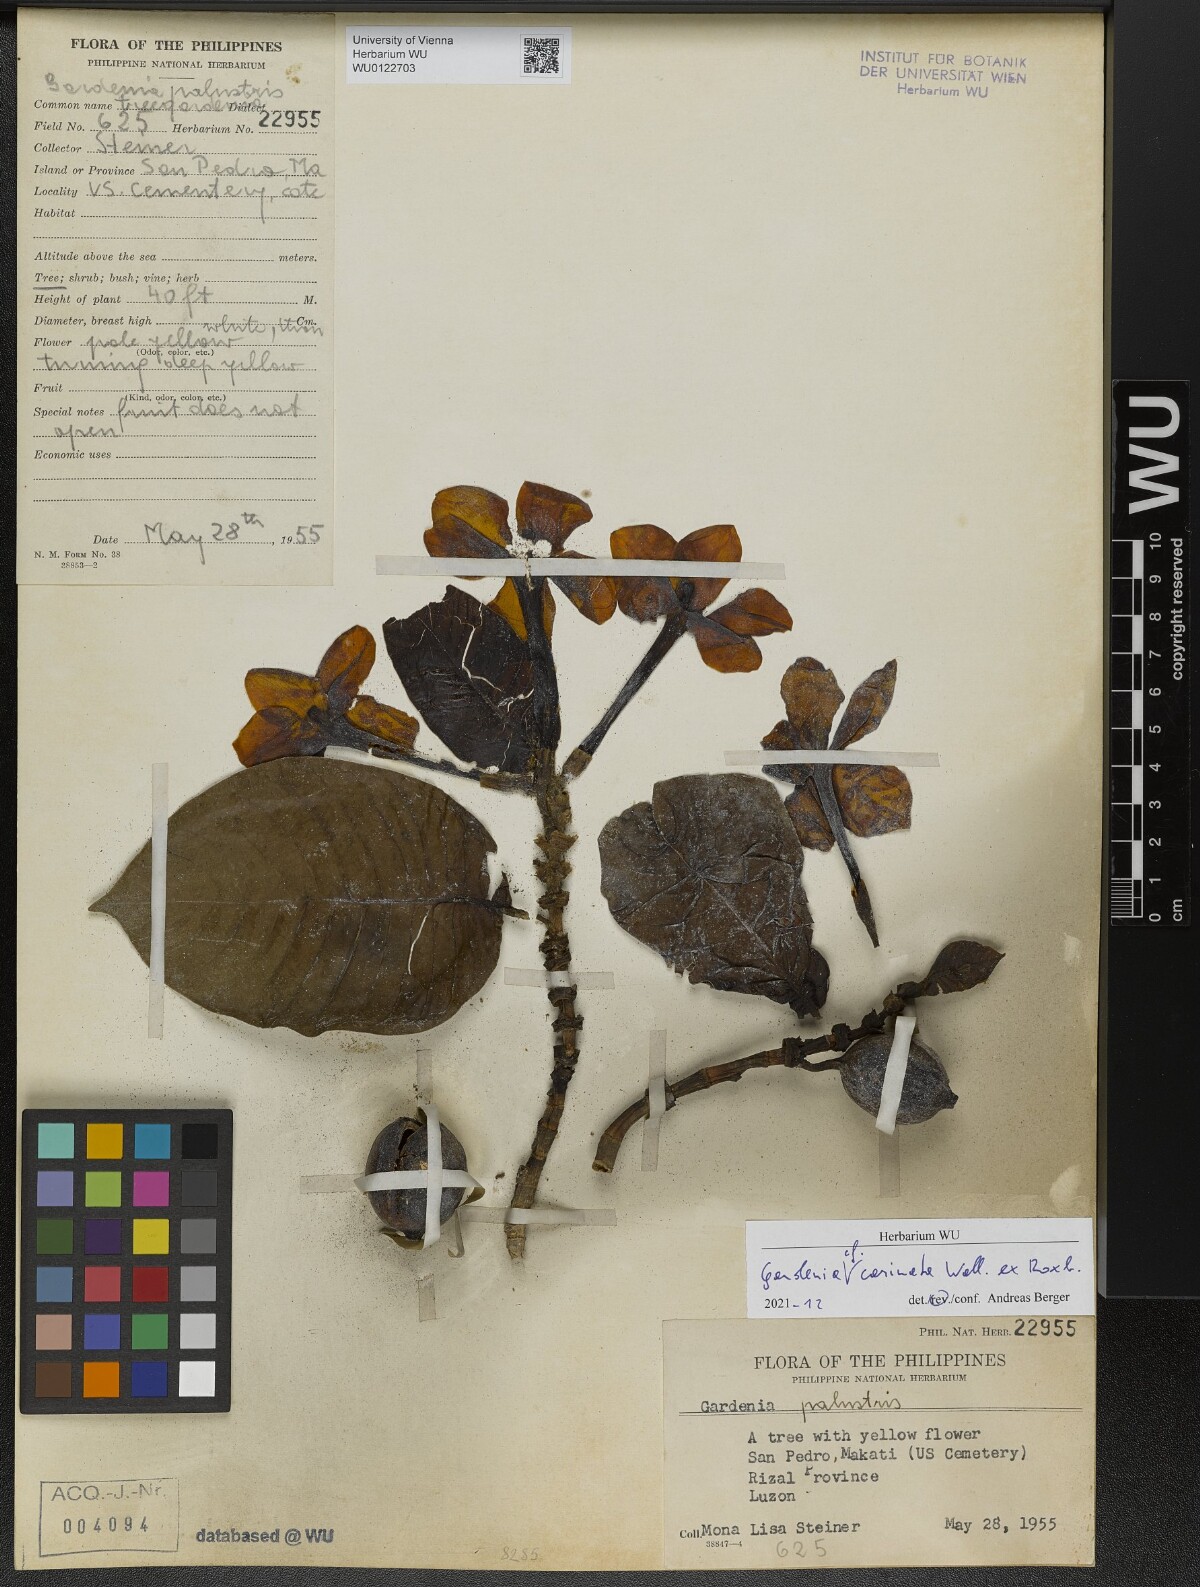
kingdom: Plantae
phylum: Tracheophyta
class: Magnoliopsida
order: Gentianales
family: Rubiaceae
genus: Gardenia
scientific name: Gardenia carinata
